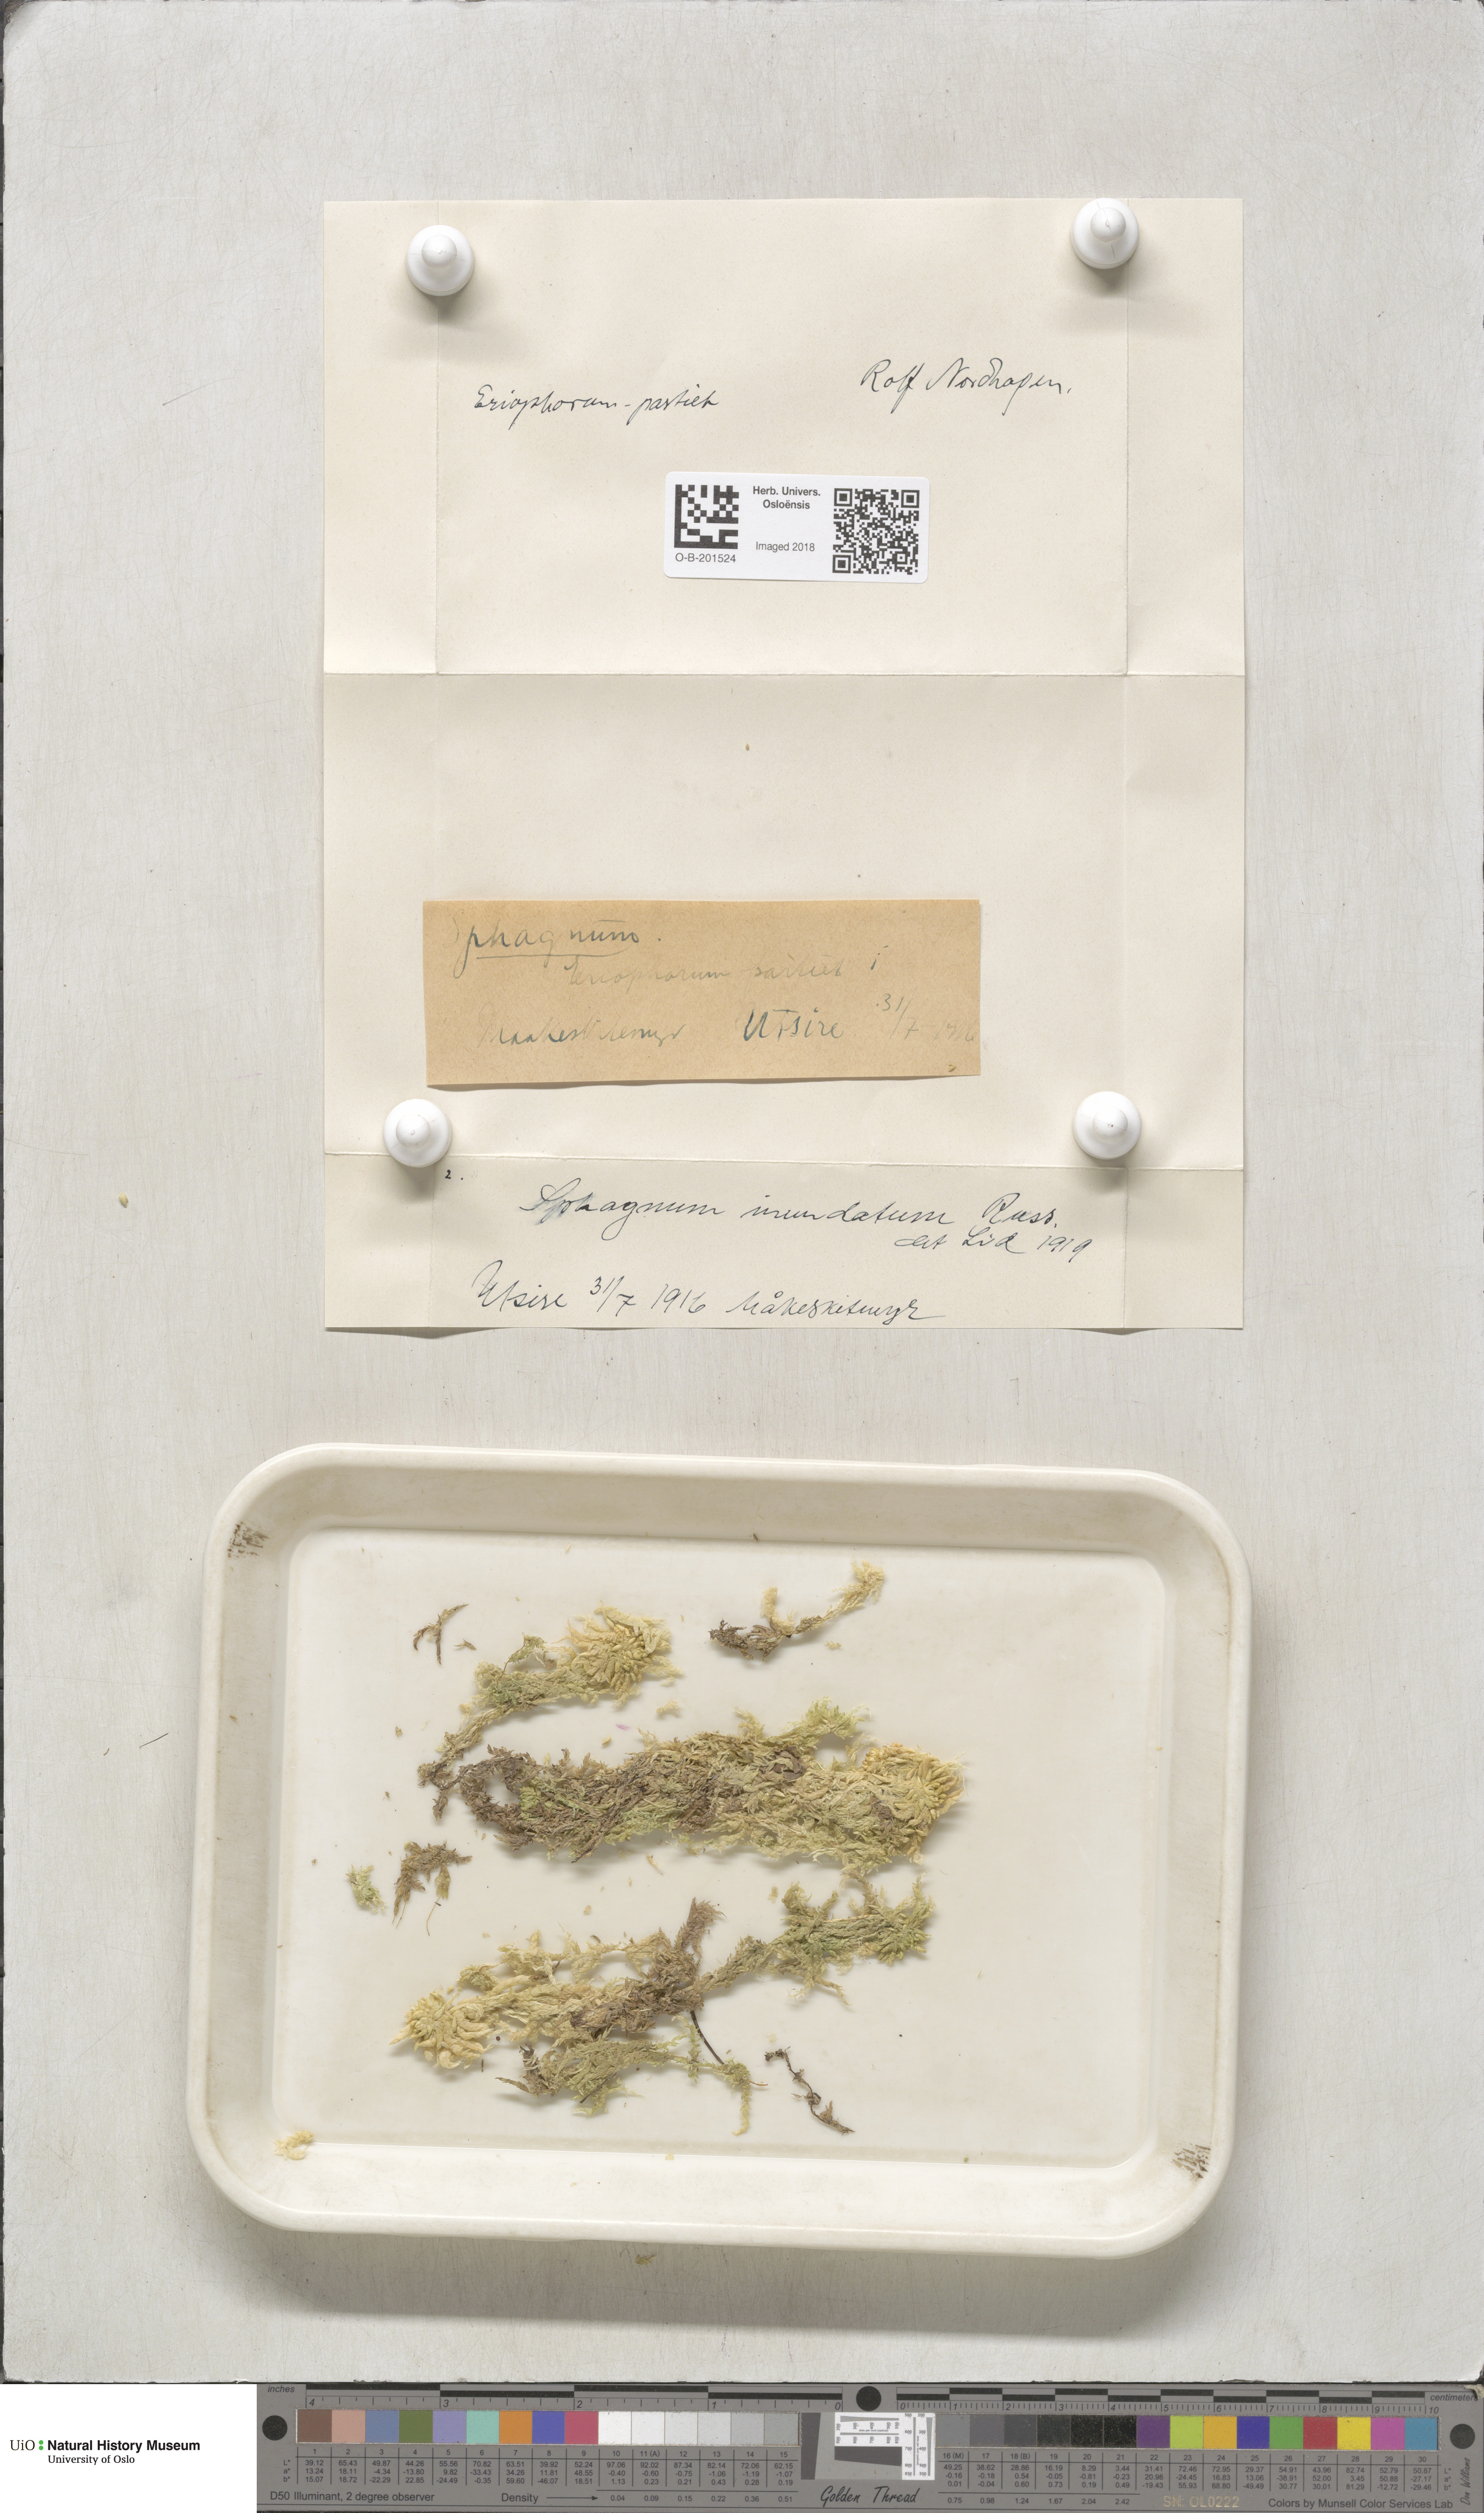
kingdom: Plantae
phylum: Bryophyta
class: Sphagnopsida
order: Sphagnales
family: Sphagnaceae
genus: Sphagnum
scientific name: Sphagnum inundatum
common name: Lesser cow-horn bog-moss
